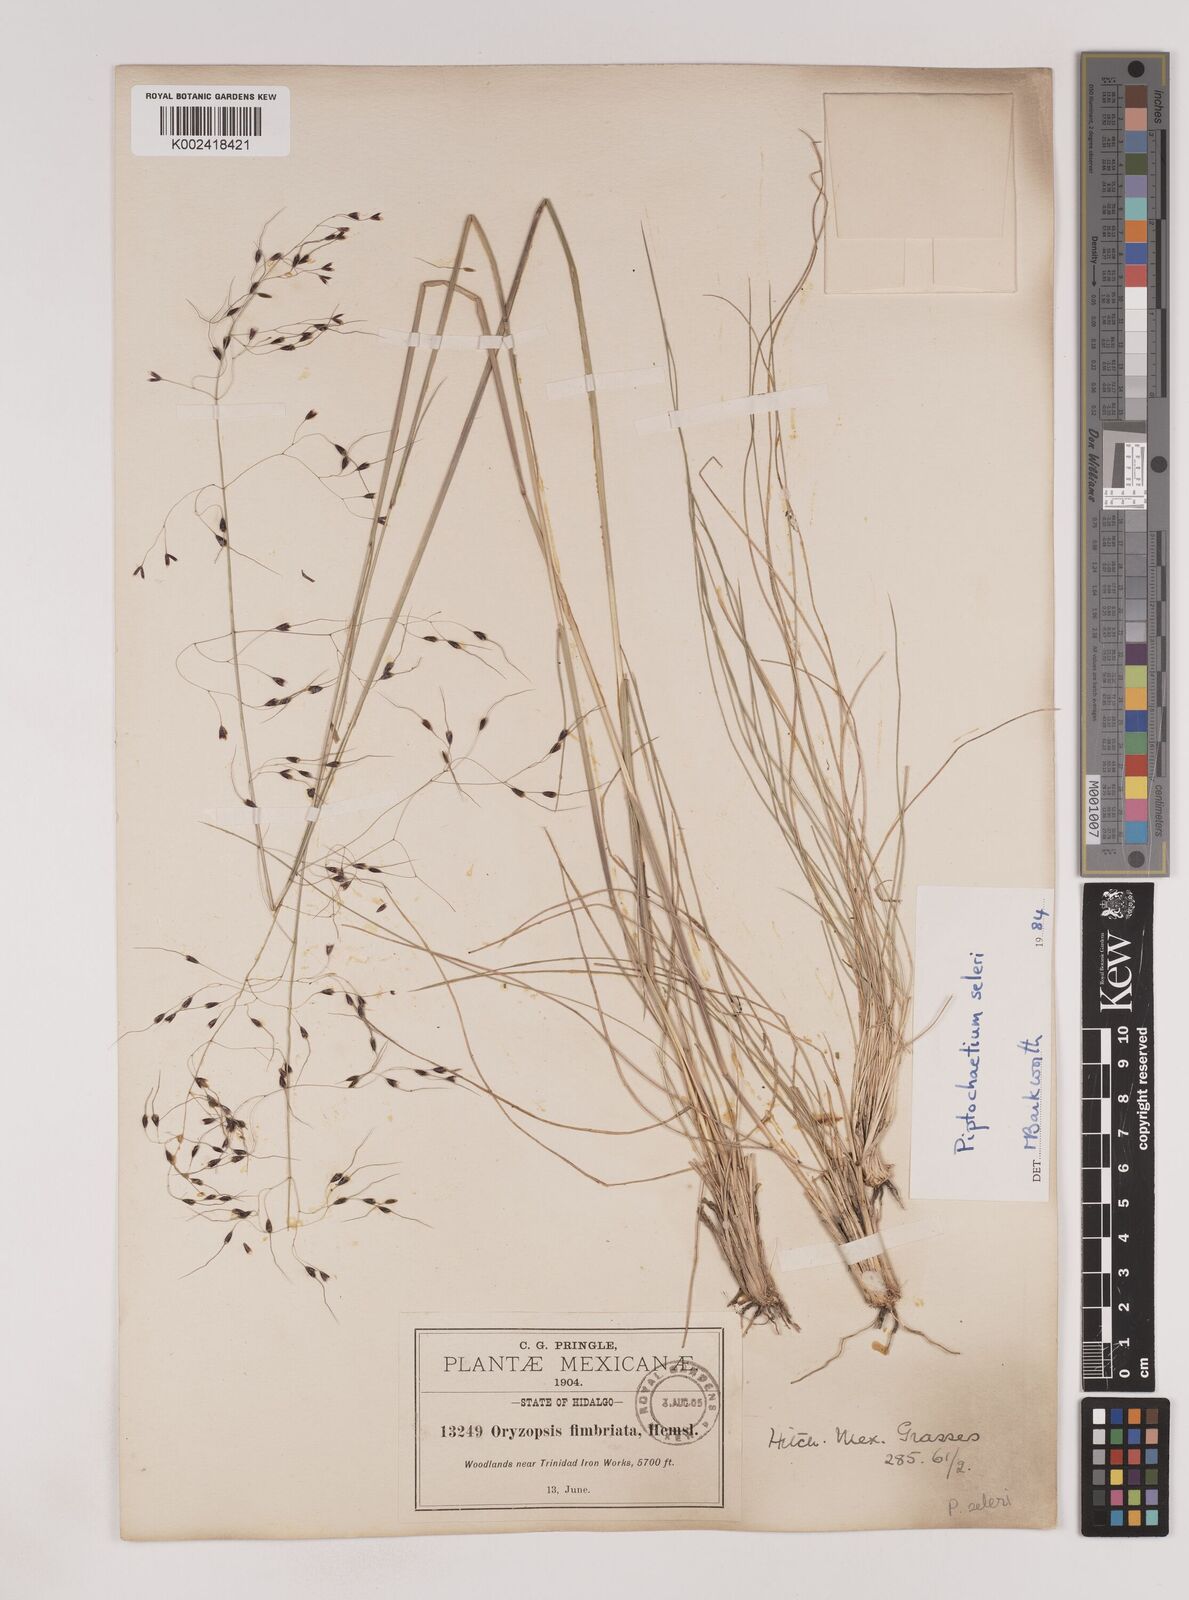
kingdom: Plantae
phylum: Tracheophyta
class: Liliopsida
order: Poales
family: Poaceae
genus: Piptochaetium
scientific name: Piptochaetium seleri
